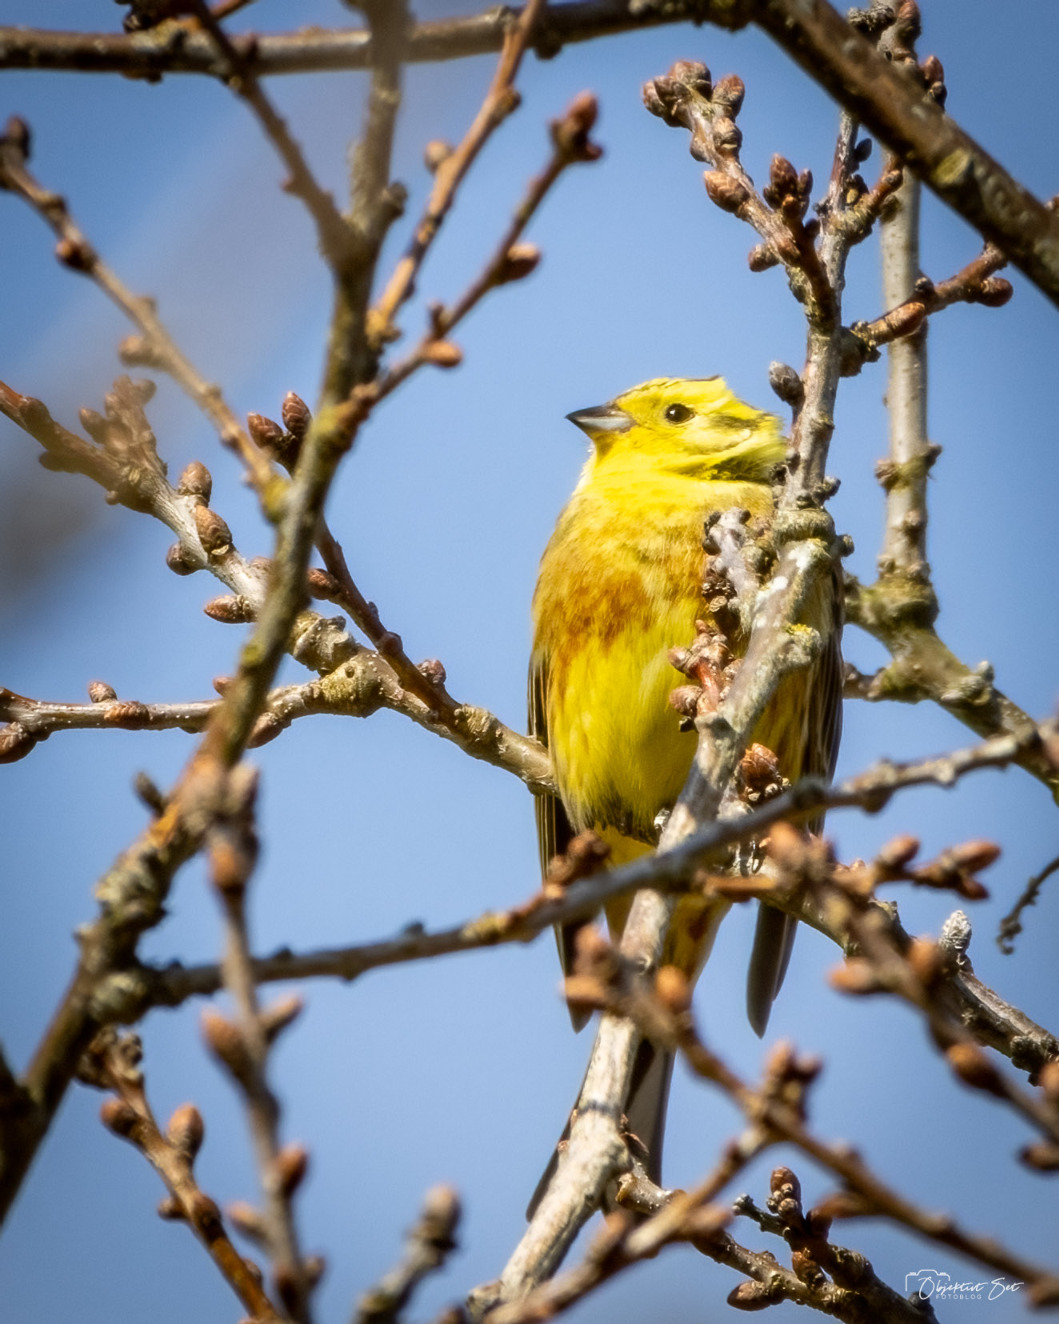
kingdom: Animalia
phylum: Chordata
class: Aves
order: Passeriformes
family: Emberizidae
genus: Emberiza
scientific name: Emberiza citrinella
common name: Gulspurv
